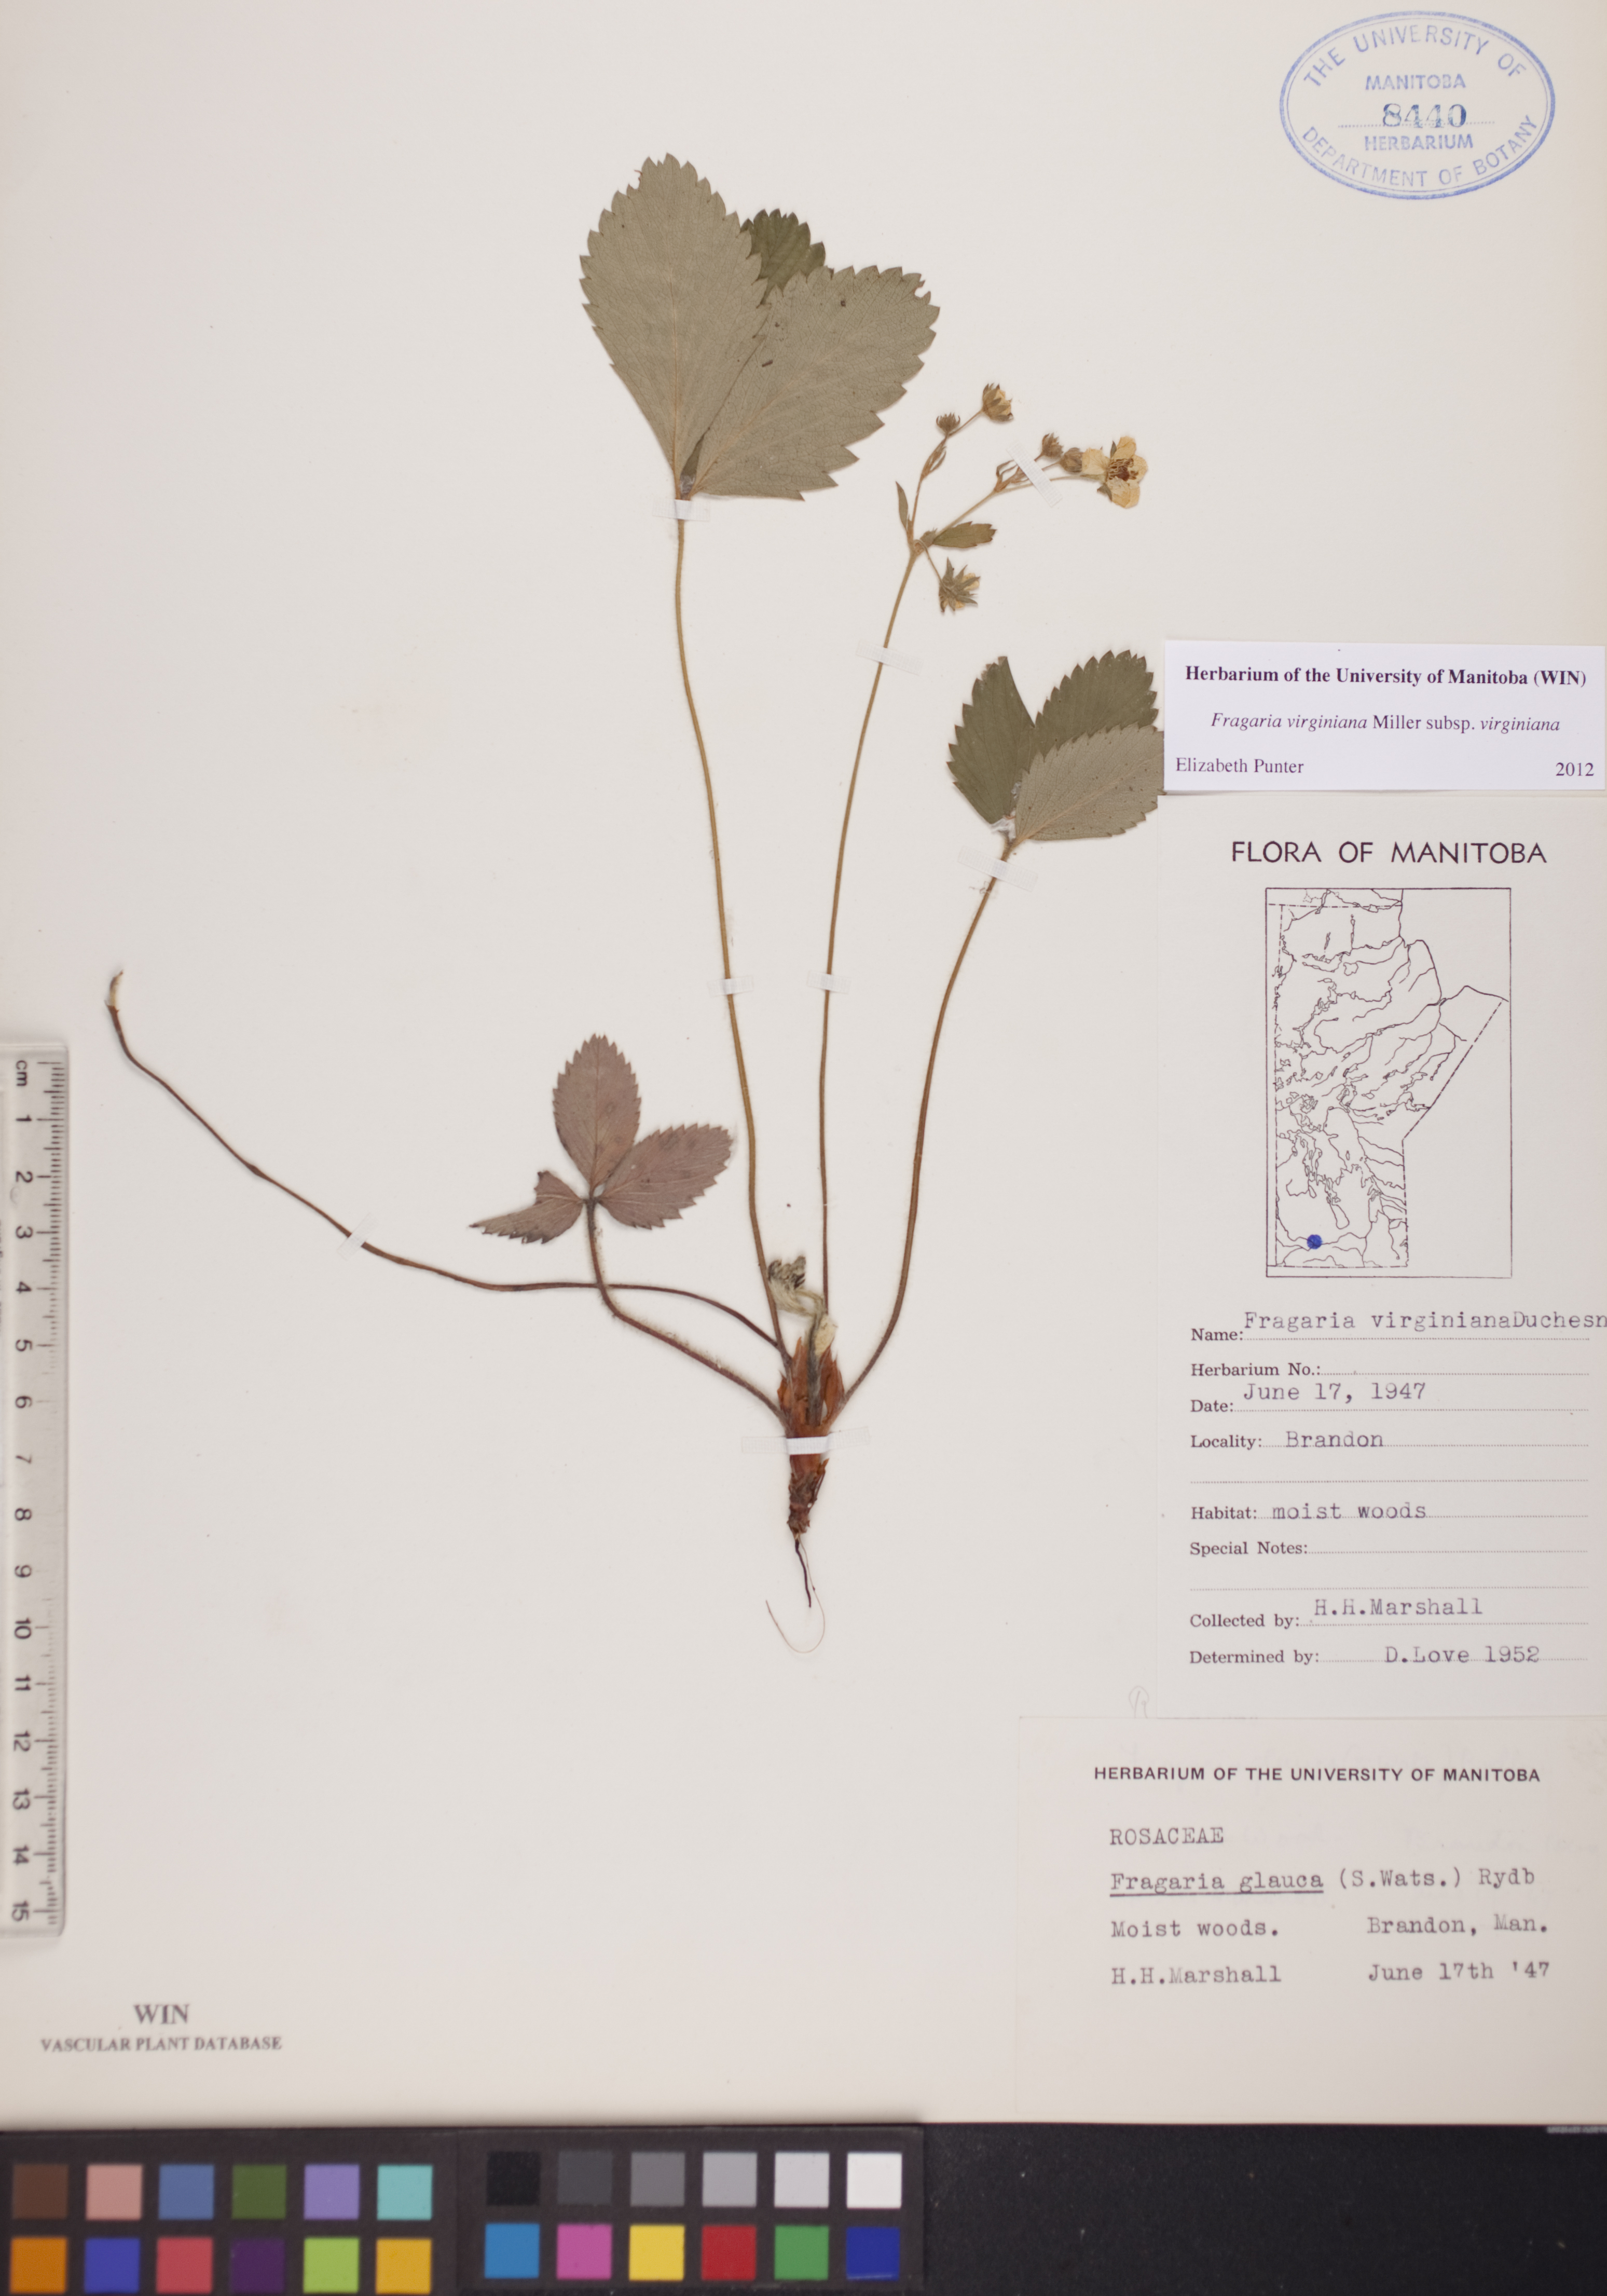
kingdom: Plantae
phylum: Tracheophyta
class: Magnoliopsida
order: Rosales
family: Rosaceae
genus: Fragaria
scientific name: Fragaria virginiana
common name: Thickleaved wild strawberry
